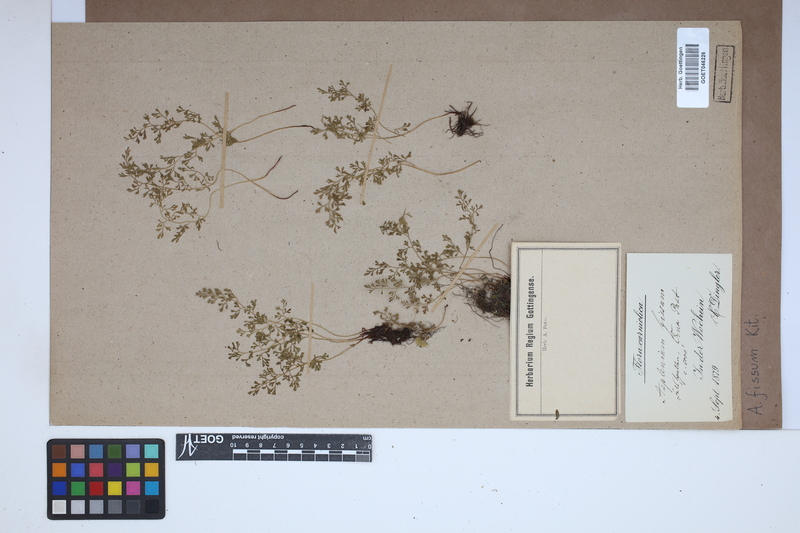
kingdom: Plantae
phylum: Tracheophyta
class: Polypodiopsida
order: Polypodiales
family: Aspleniaceae
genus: Asplenium
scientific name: Asplenium fissum
